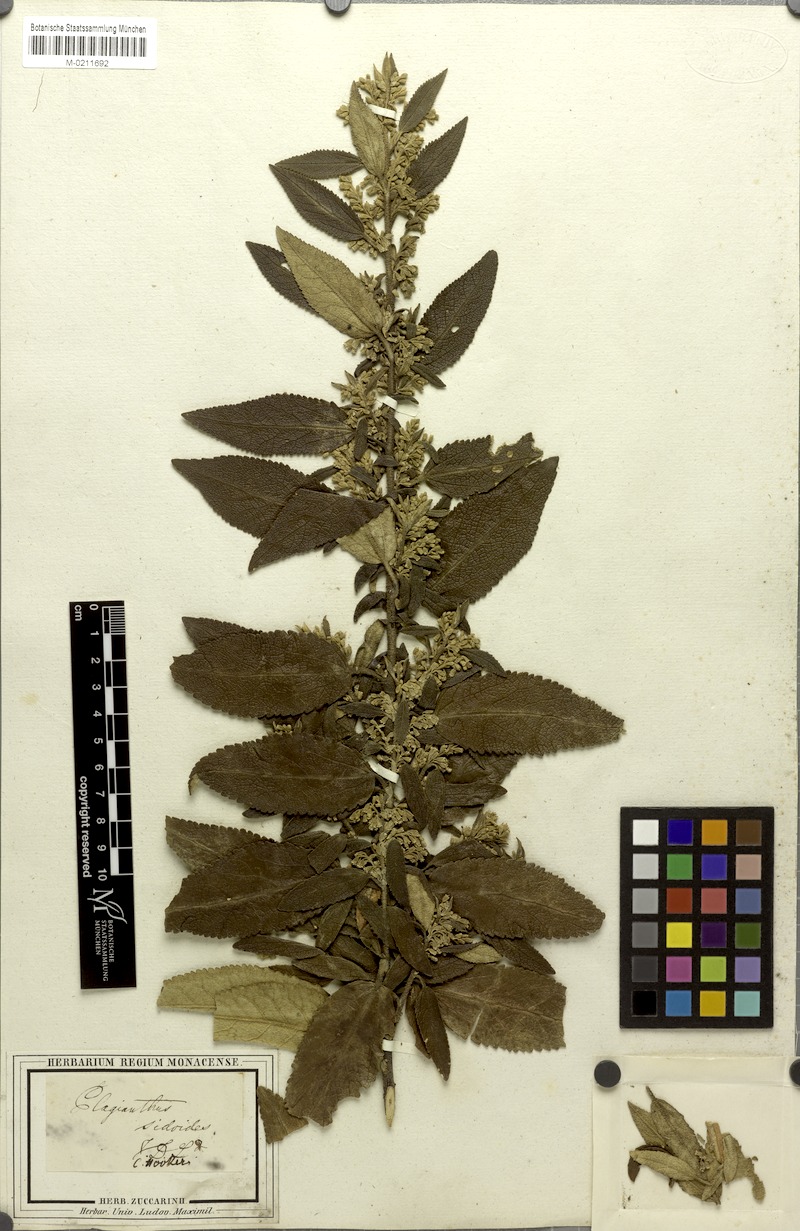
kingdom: Plantae
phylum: Tracheophyta
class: Magnoliopsida
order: Malvales
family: Malvaceae
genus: Asterotrichion
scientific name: Asterotrichion discolor
